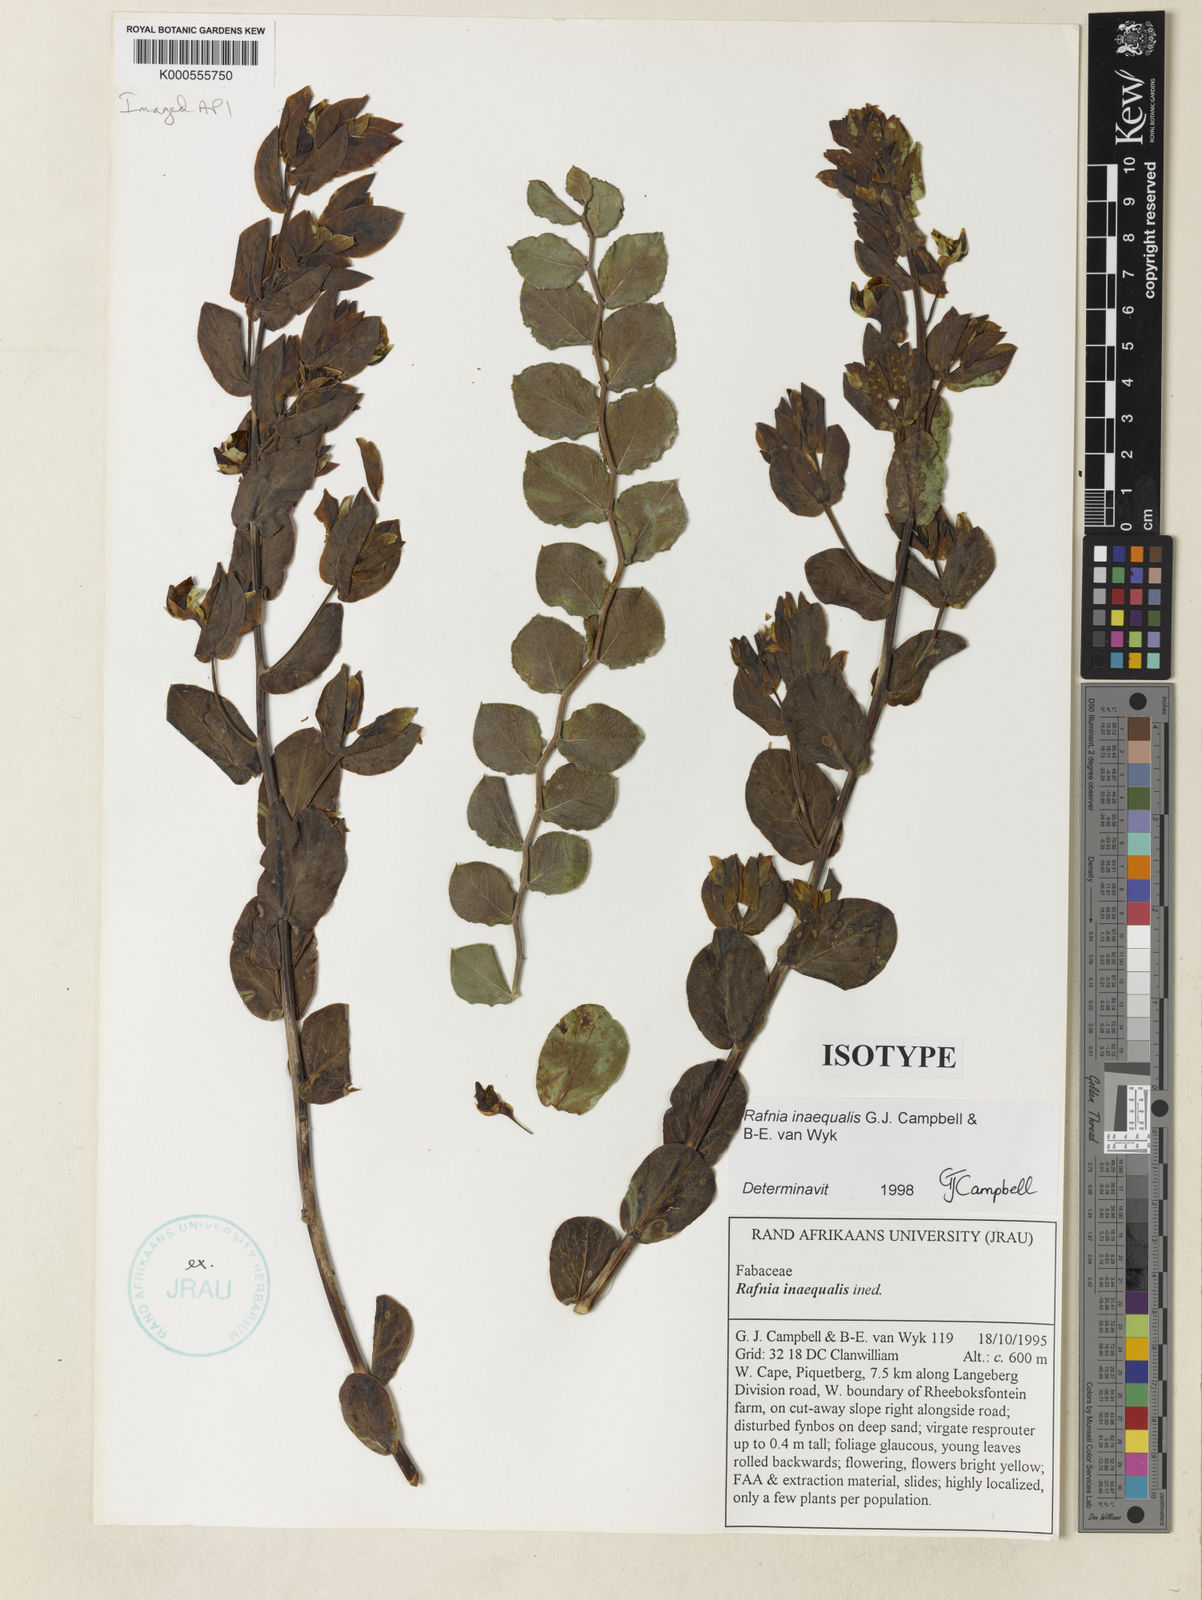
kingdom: Plantae
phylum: Tracheophyta
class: Magnoliopsida
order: Fabales
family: Fabaceae
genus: Rafnia
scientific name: Rafnia inaequalis
